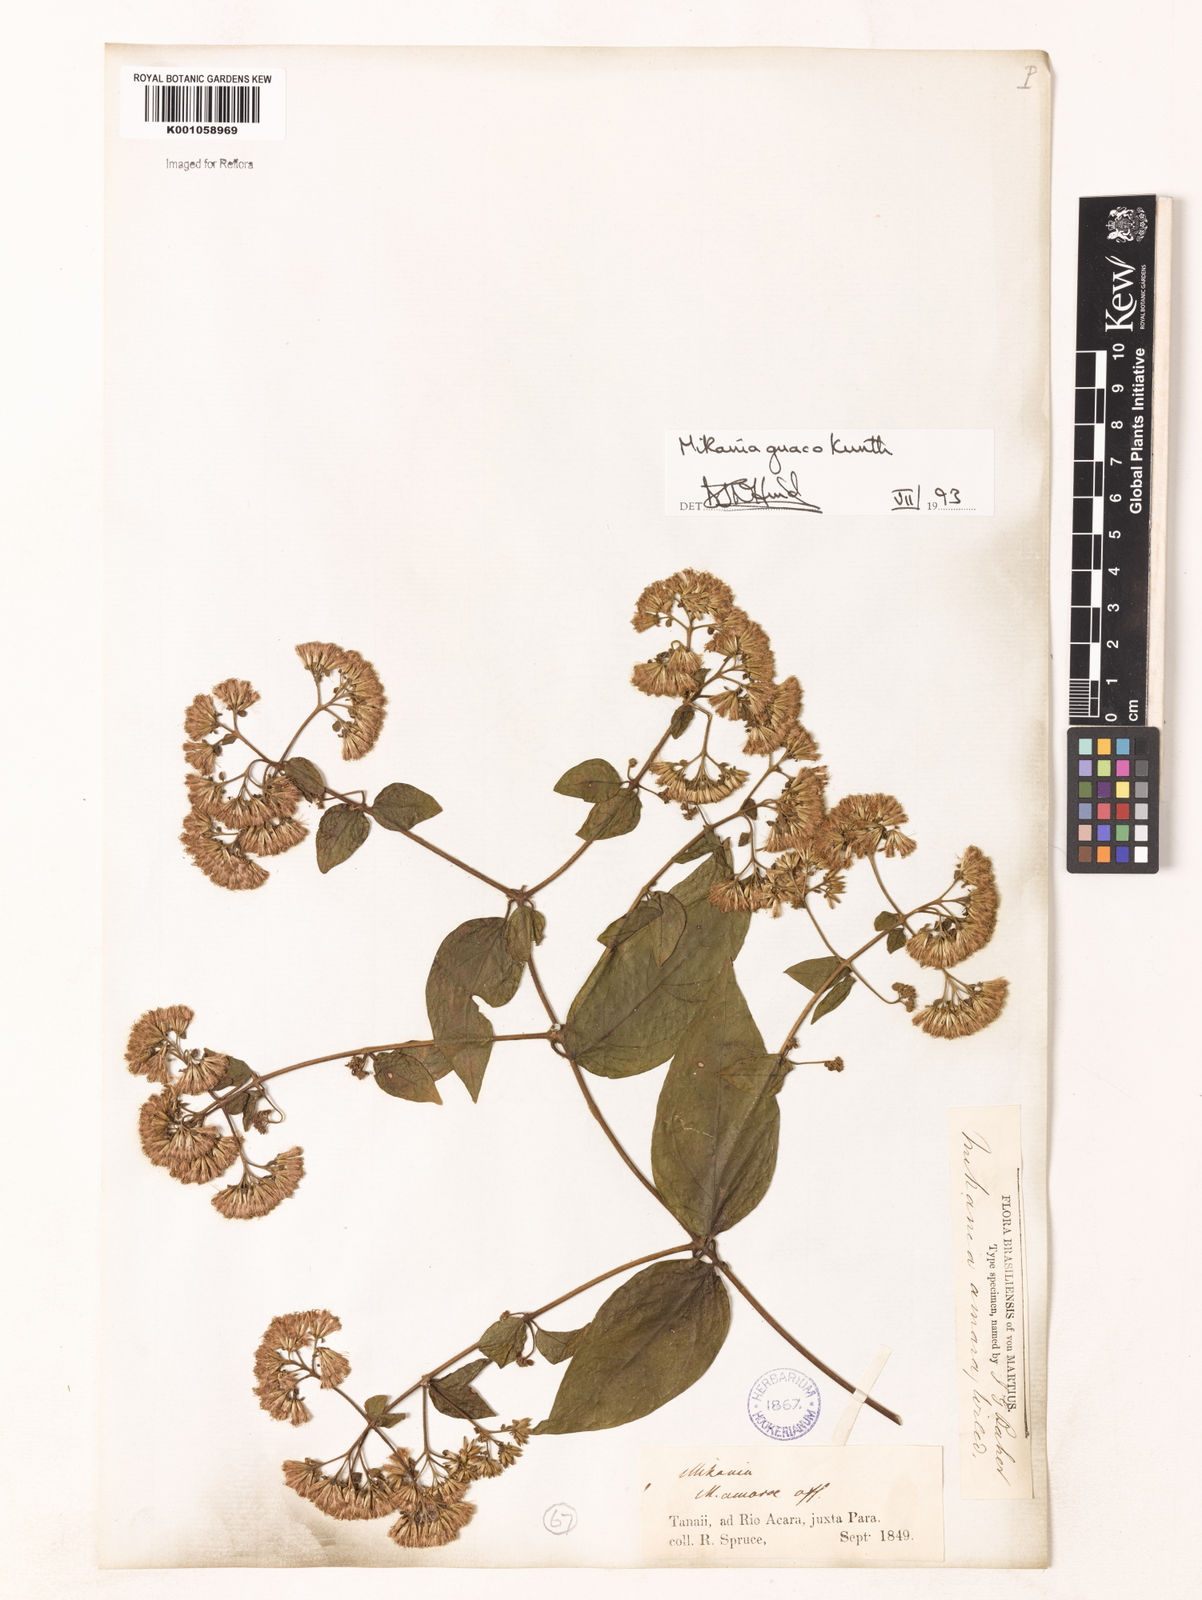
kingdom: Plantae
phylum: Tracheophyta
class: Magnoliopsida
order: Asterales
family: Asteraceae
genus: Mikania
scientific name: Mikania guaco
